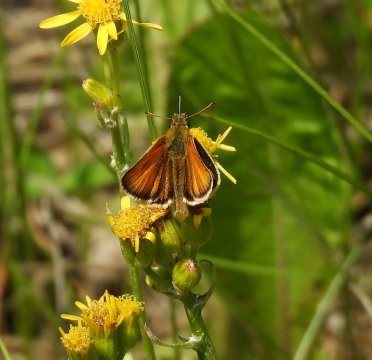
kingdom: Animalia
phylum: Arthropoda
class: Insecta
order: Lepidoptera
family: Hesperiidae
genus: Thymelicus
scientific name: Thymelicus lineola
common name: European Skipper
